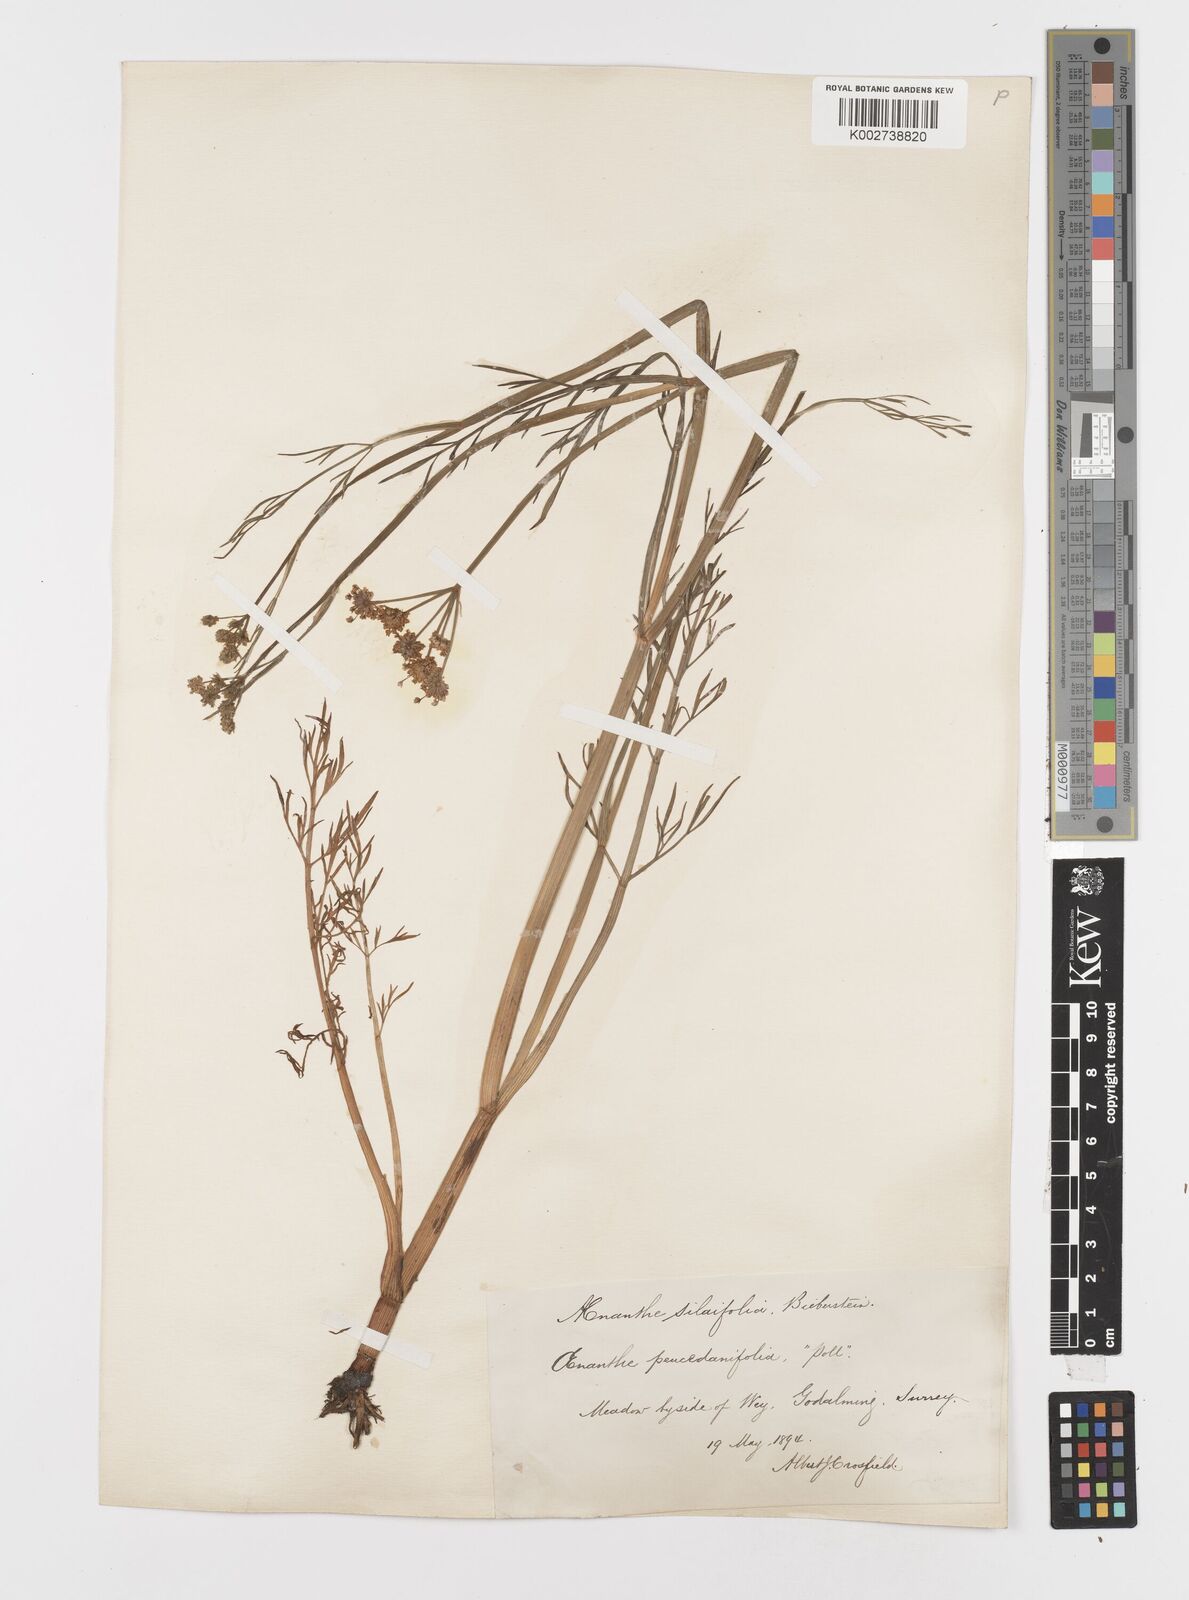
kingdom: Plantae
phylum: Tracheophyta
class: Magnoliopsida
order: Apiales
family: Apiaceae
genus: Oenanthe
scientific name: Oenanthe silaifolia
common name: Narrow-leaved water-dropwort
